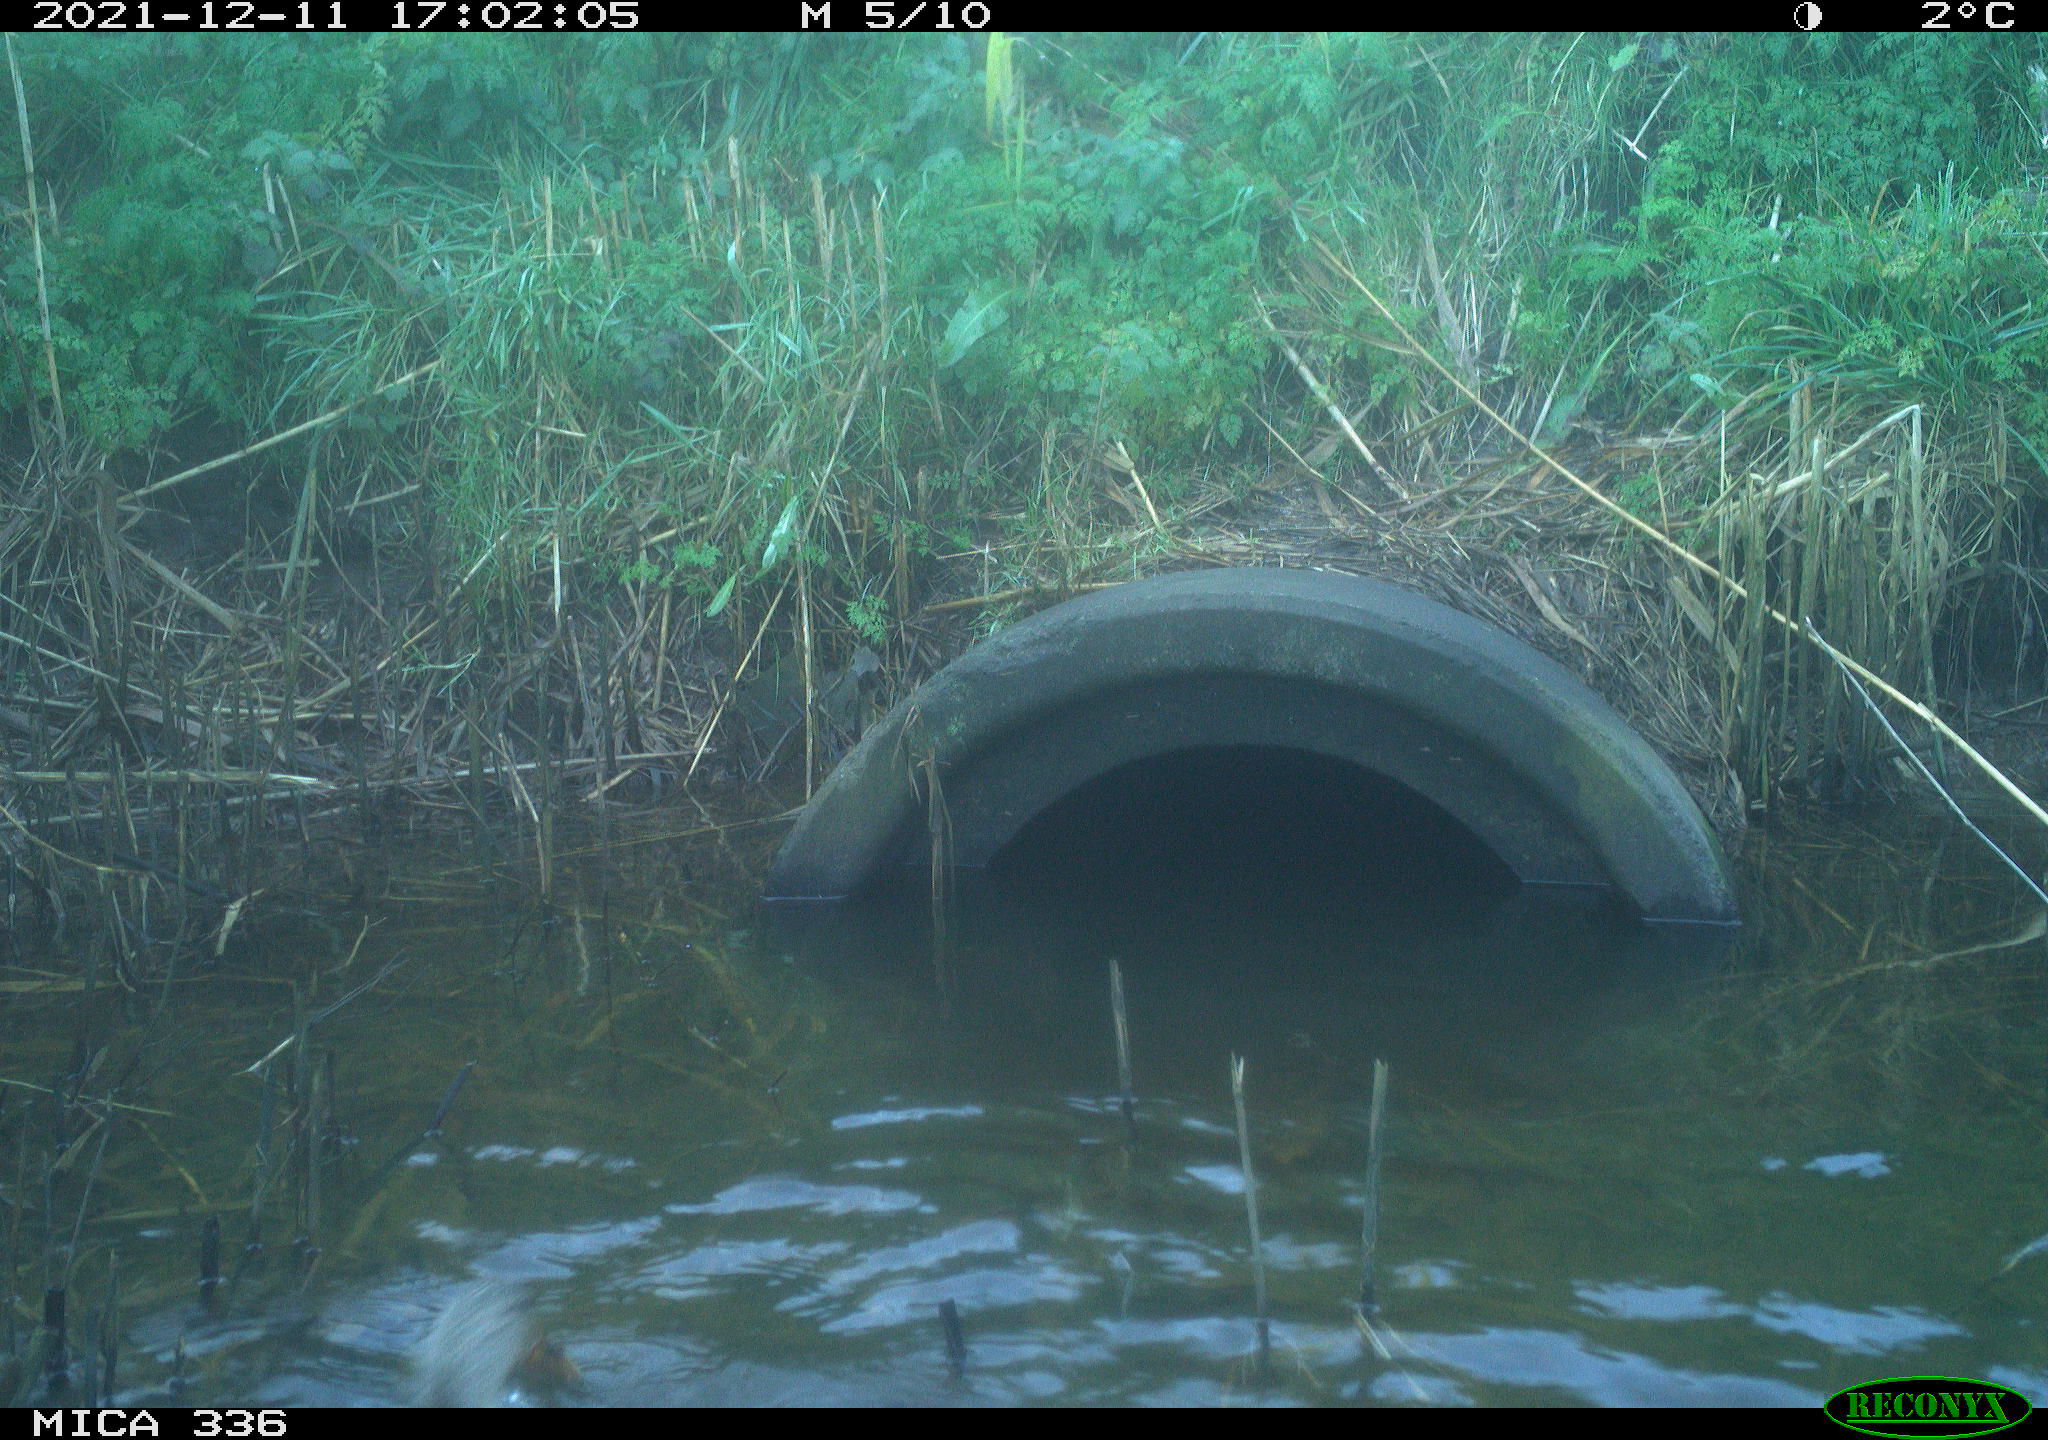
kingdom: Animalia
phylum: Chordata
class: Aves
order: Gruiformes
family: Rallidae
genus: Gallinula
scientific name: Gallinula chloropus
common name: Common moorhen
